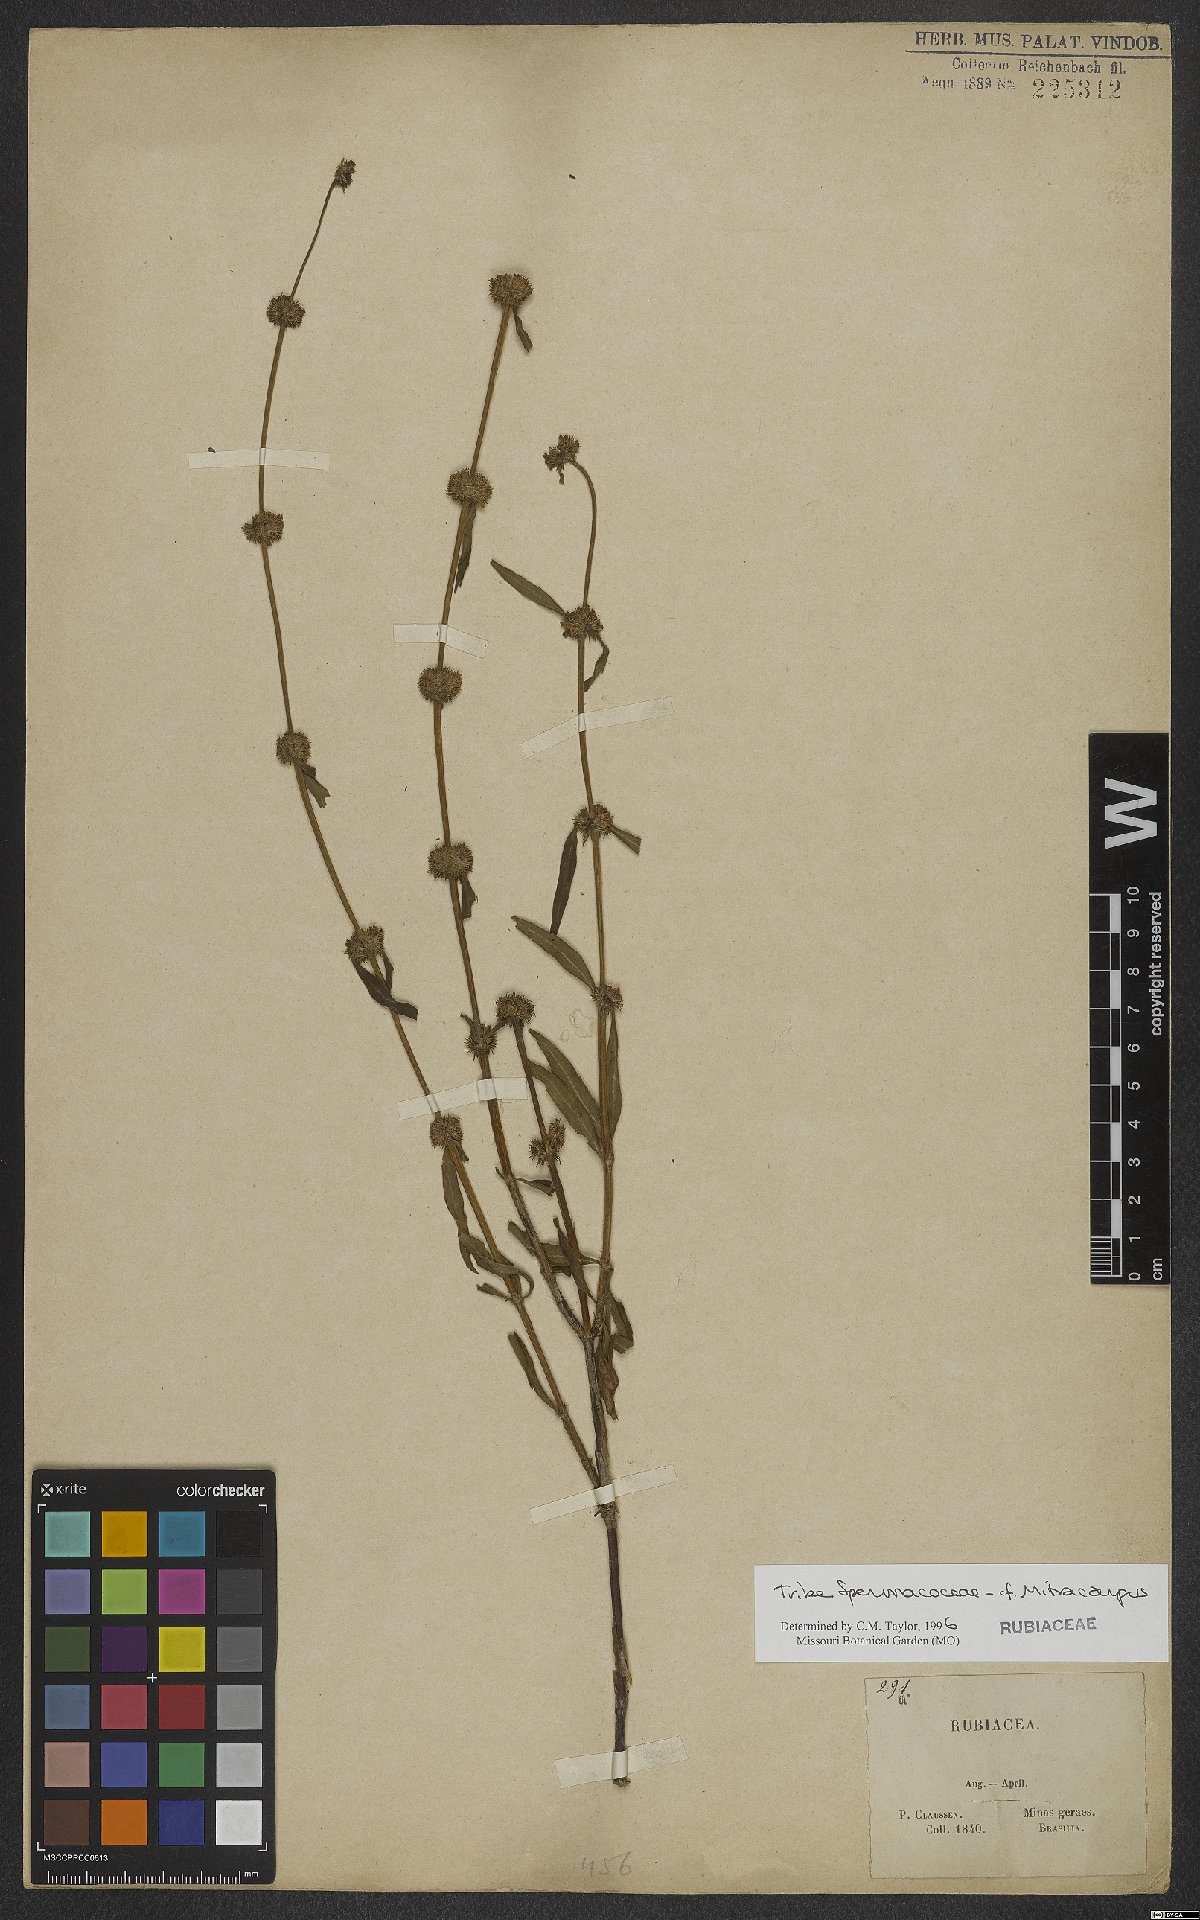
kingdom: Plantae
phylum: Tracheophyta
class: Magnoliopsida
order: Gentianales
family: Rubiaceae
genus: Mitracarpus
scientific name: Mitracarpus
